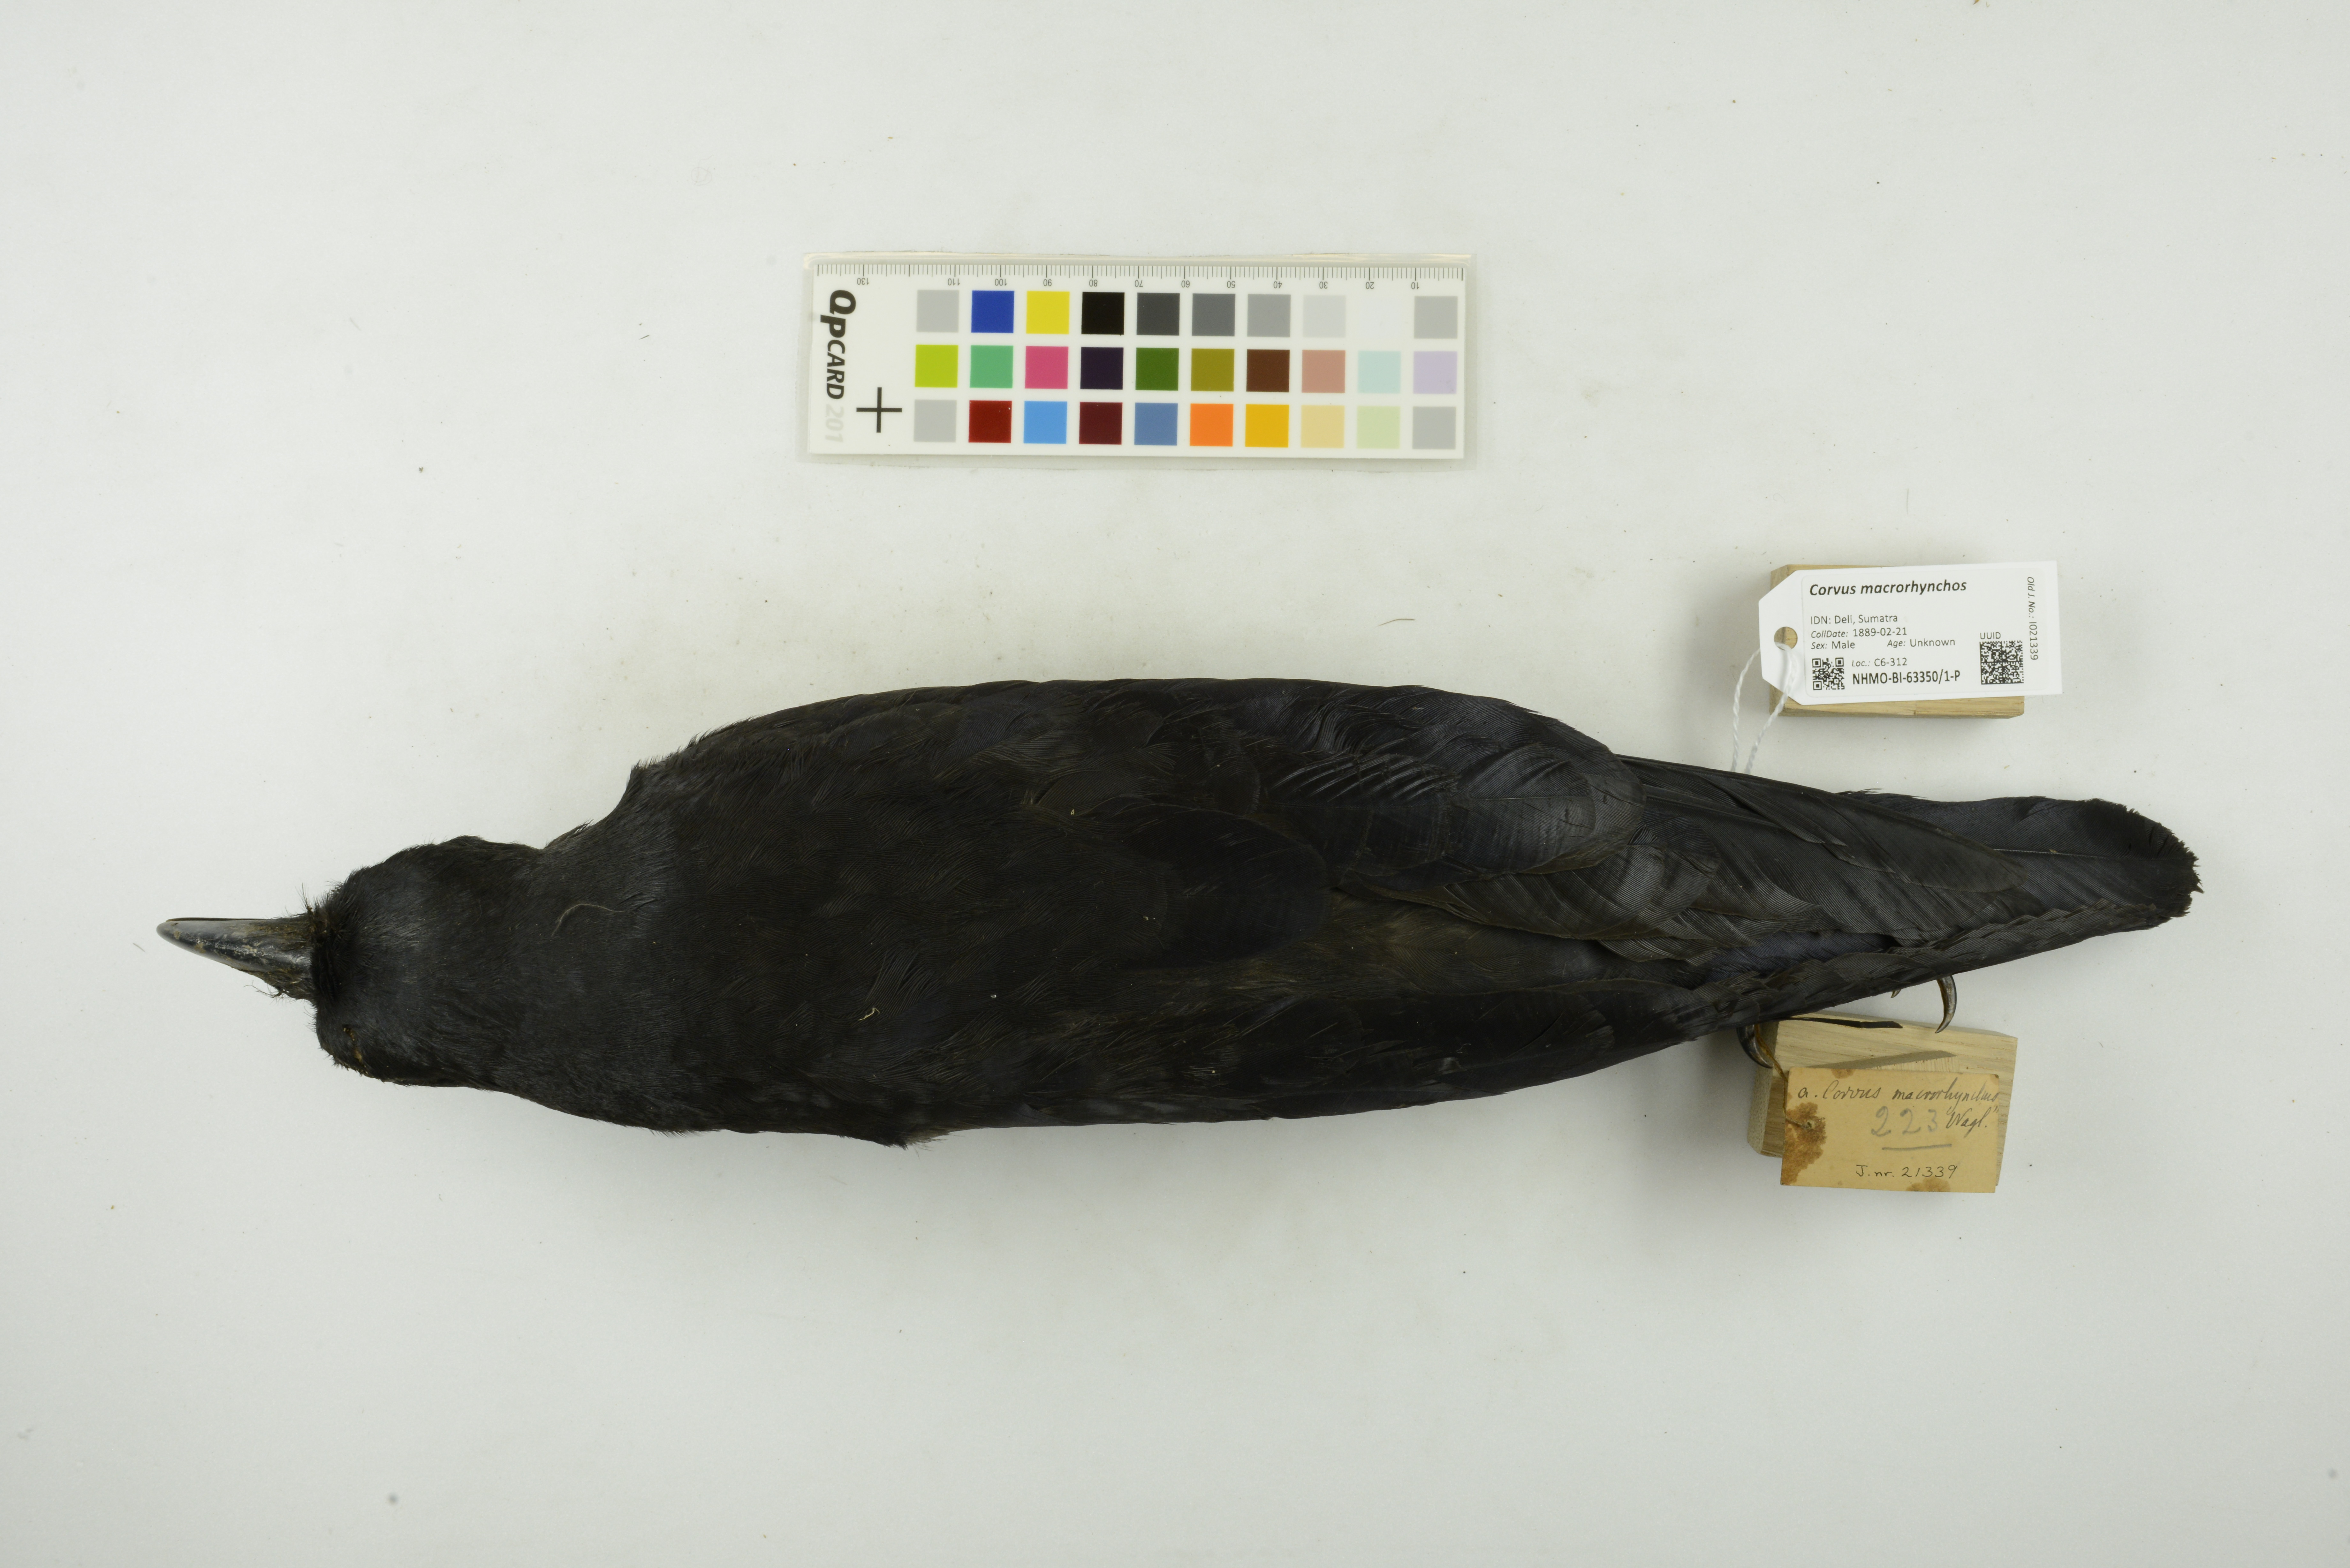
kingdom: Animalia
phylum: Chordata
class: Aves
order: Passeriformes
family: Corvidae
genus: Corvus
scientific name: Corvus macrorhynchos
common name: Large-billed crow
